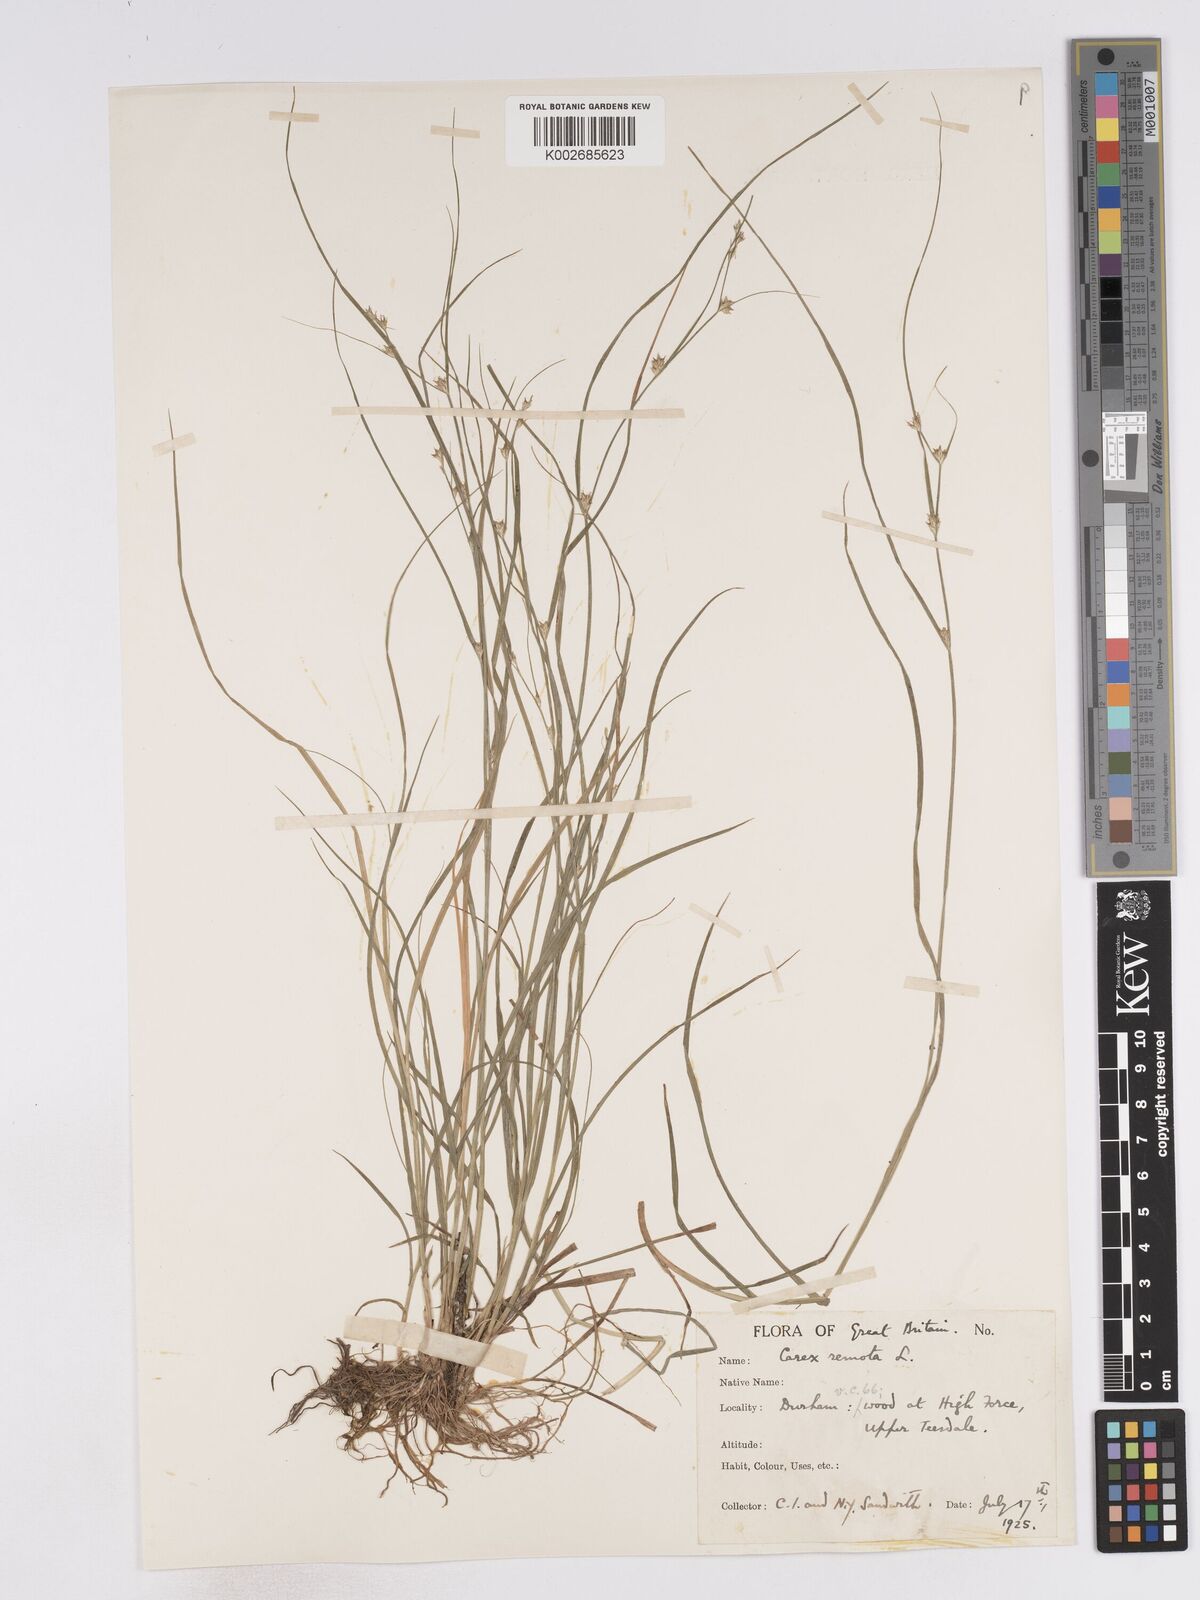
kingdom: Plantae
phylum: Tracheophyta
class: Liliopsida
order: Poales
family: Cyperaceae
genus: Carex
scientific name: Carex remota
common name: Remote sedge
